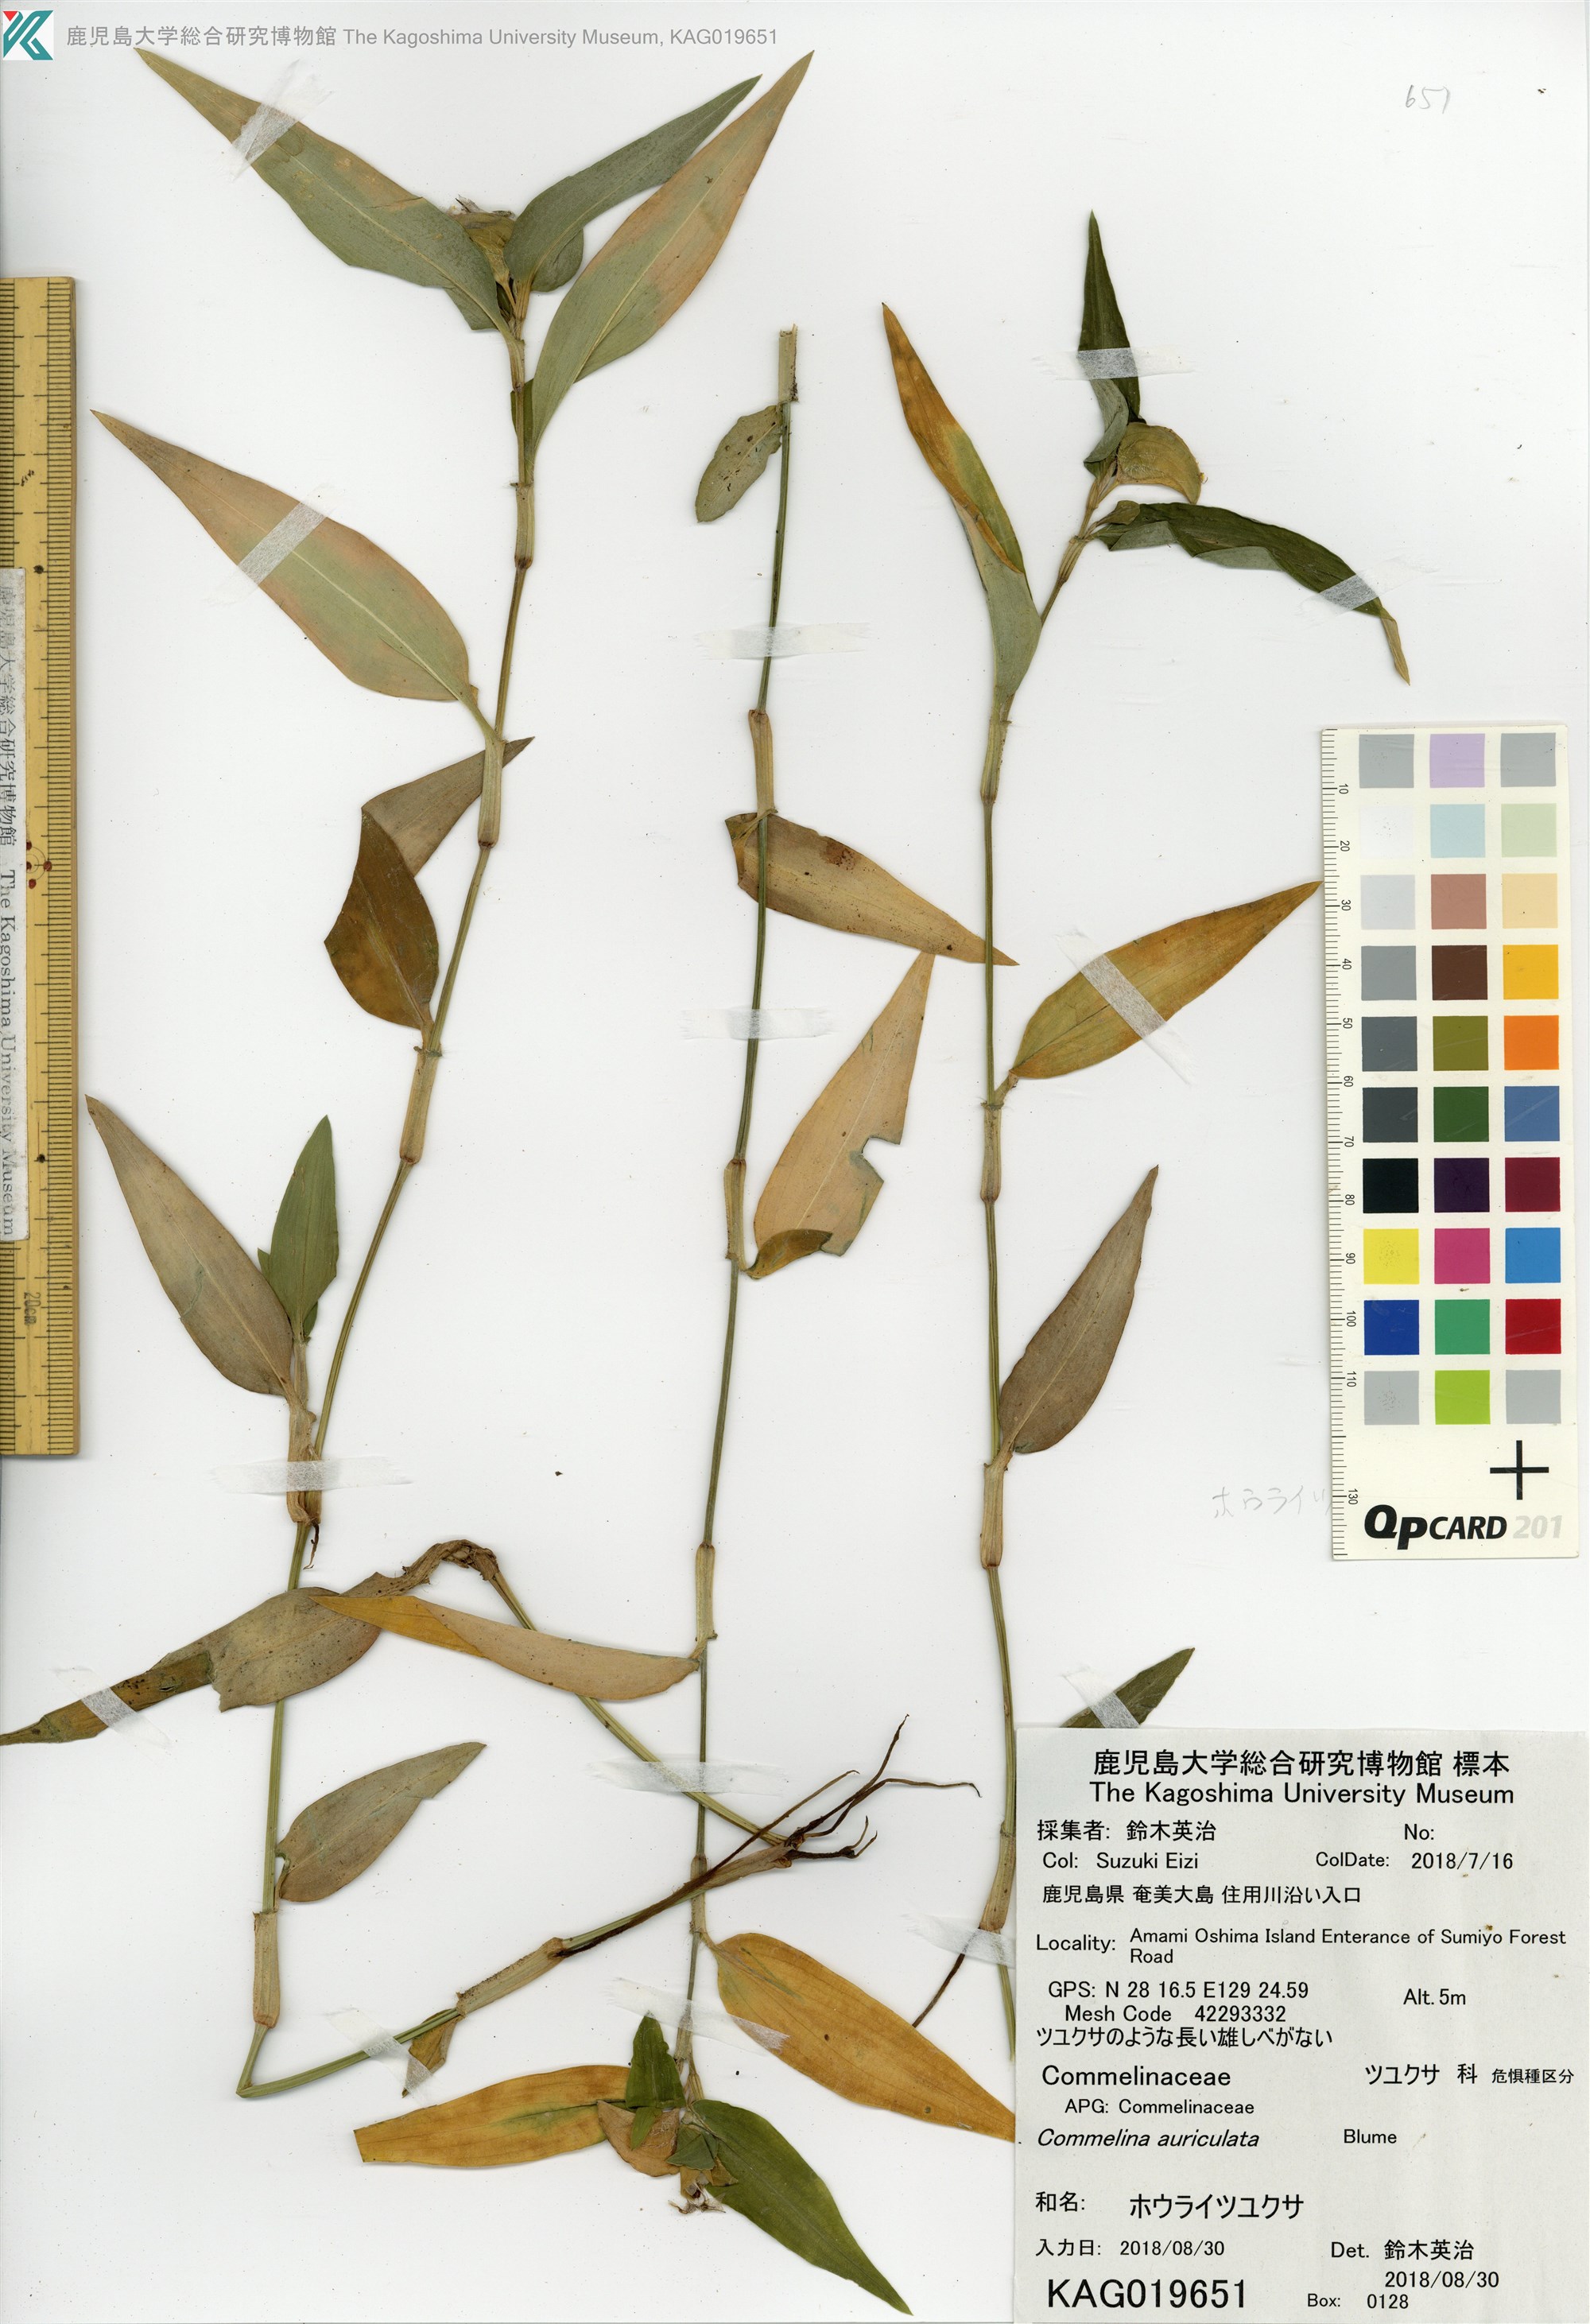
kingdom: Plantae
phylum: Tracheophyta
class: Liliopsida
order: Commelinales
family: Commelinaceae
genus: Commelina
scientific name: Commelina auriculata
